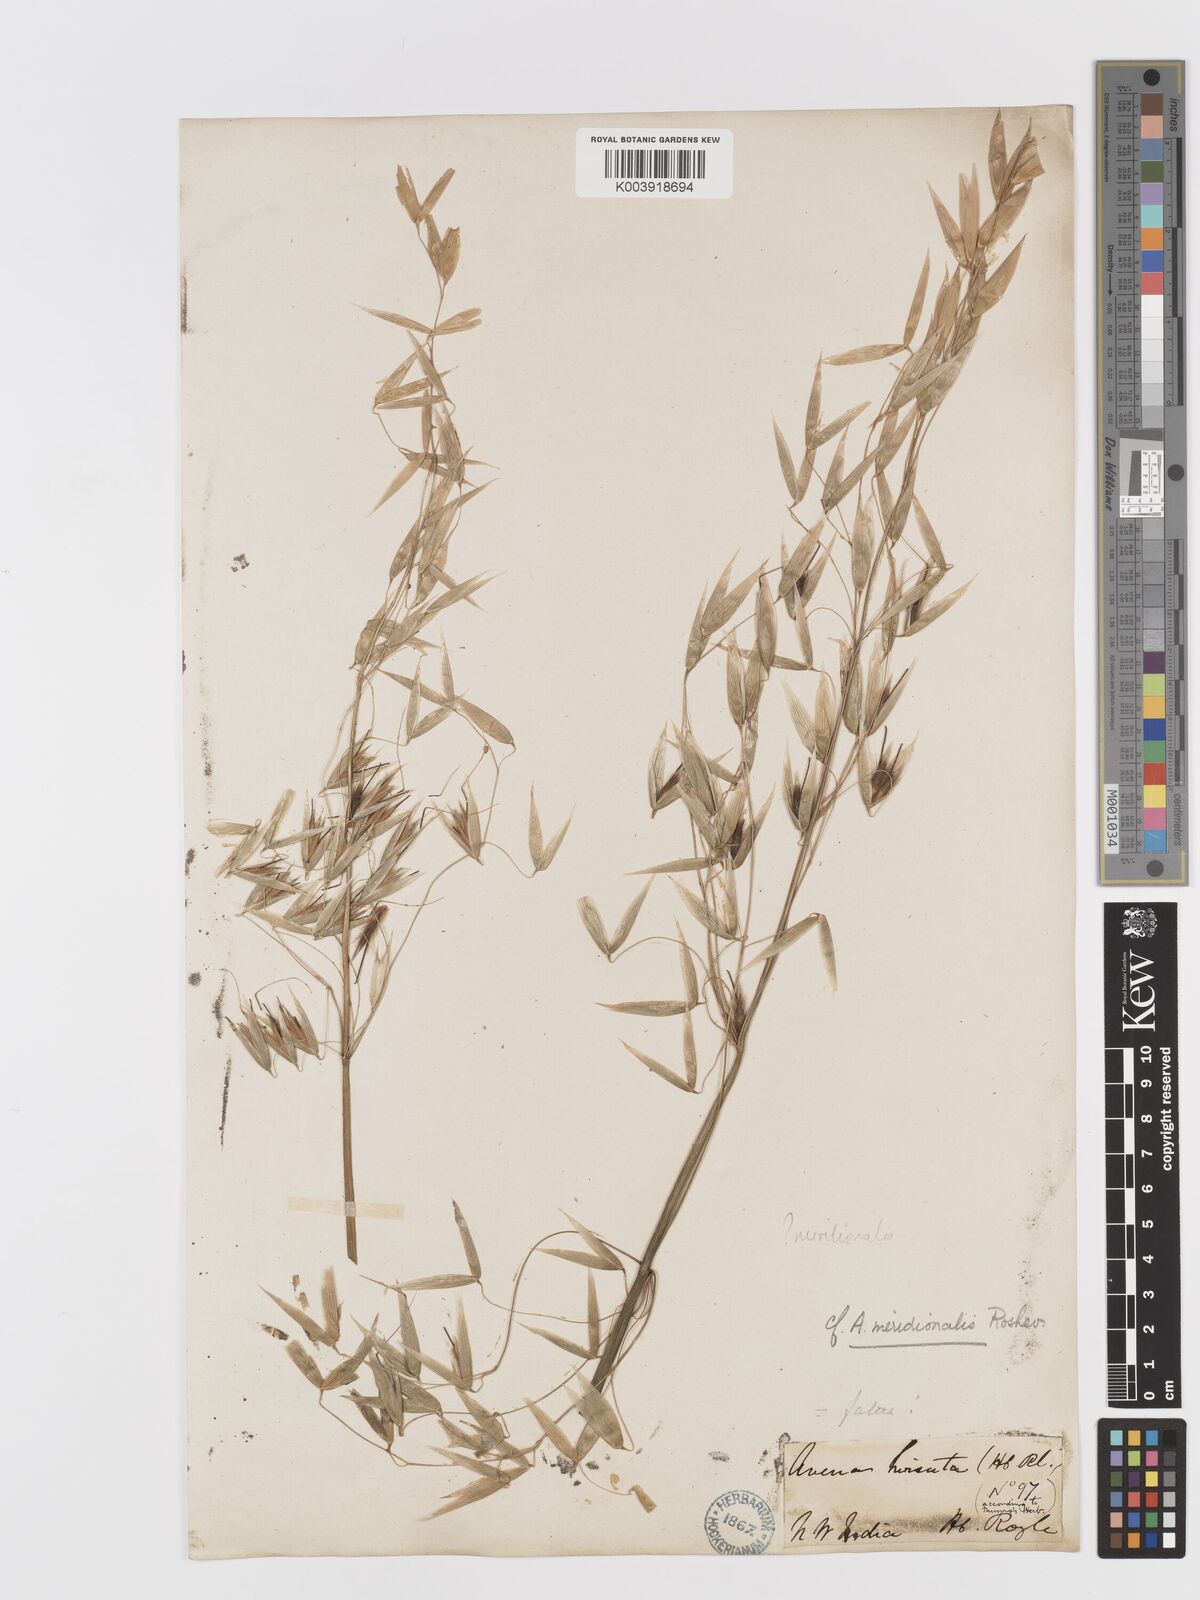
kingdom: Plantae
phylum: Tracheophyta
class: Liliopsida
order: Poales
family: Poaceae
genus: Avena
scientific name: Avena fatua
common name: Wild oat
